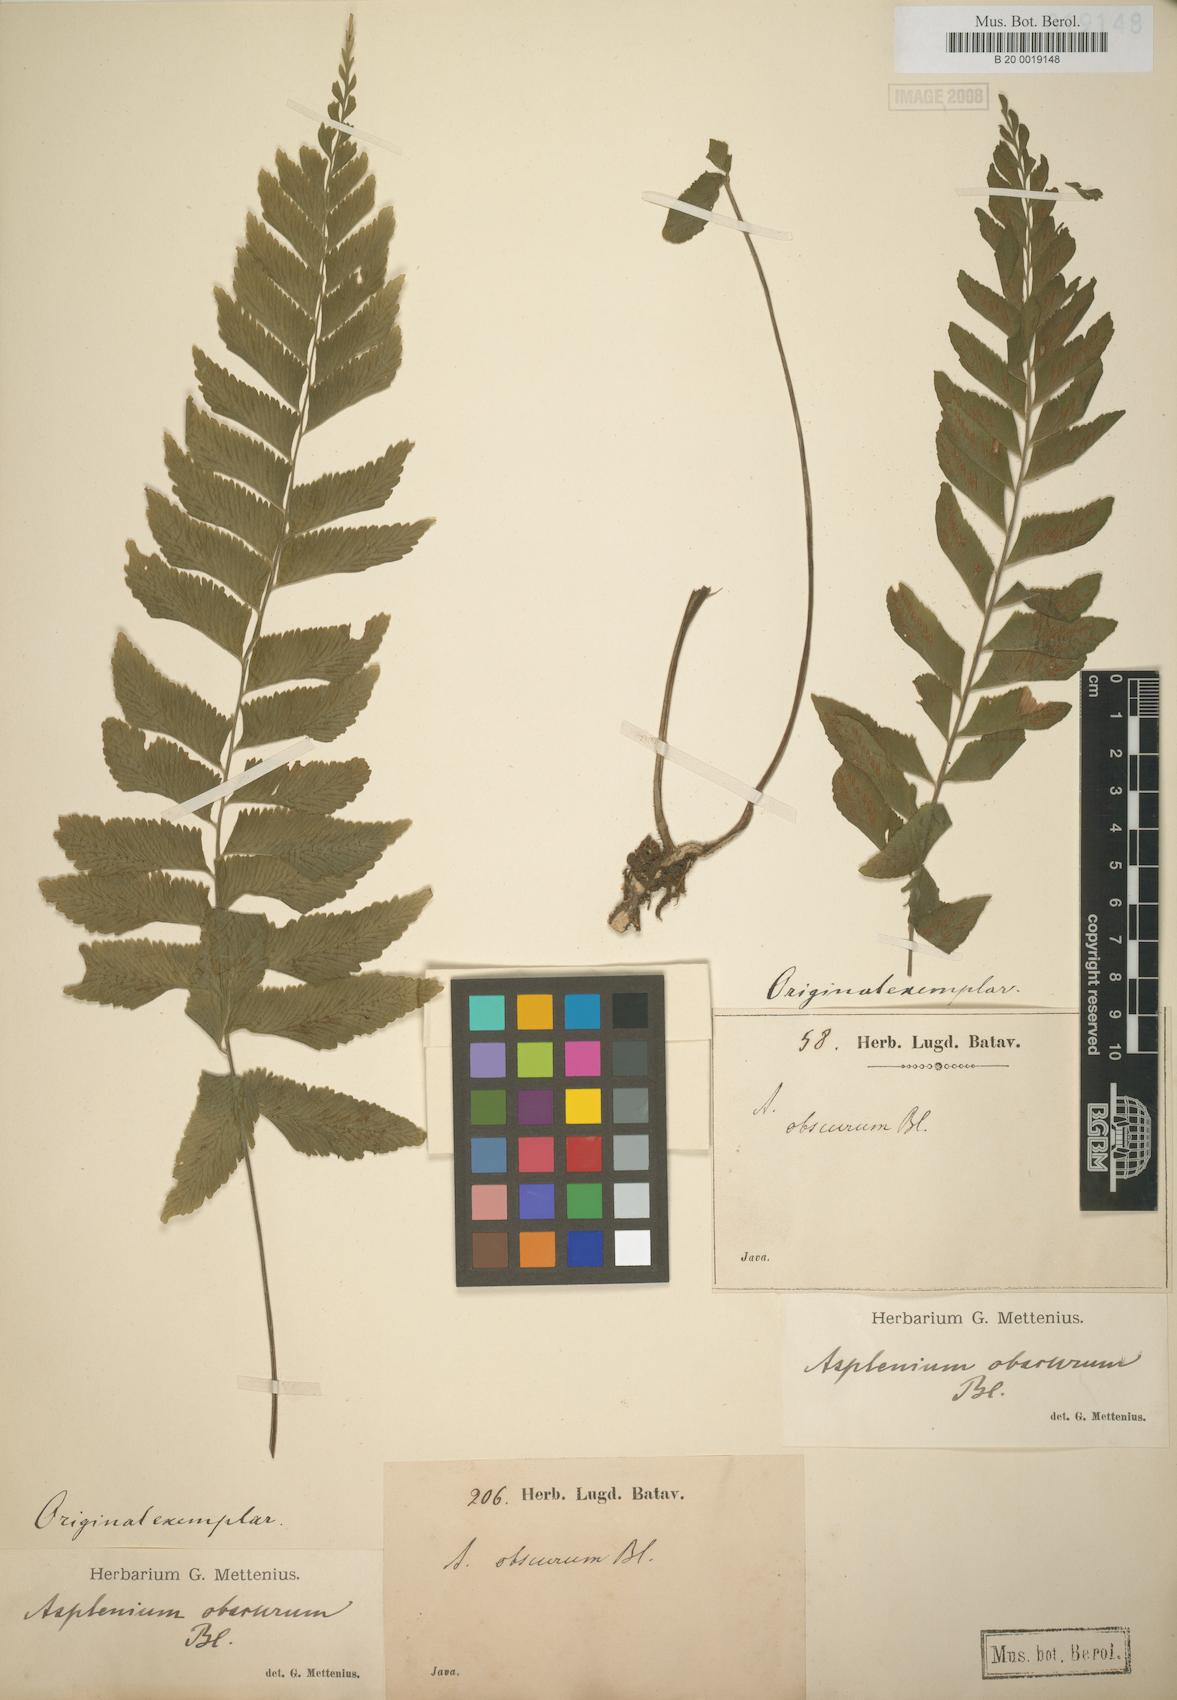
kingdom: Plantae
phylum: Tracheophyta
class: Polypodiopsida
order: Polypodiales
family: Aspleniaceae
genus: Hymenasplenium
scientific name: Hymenasplenium obscurum
